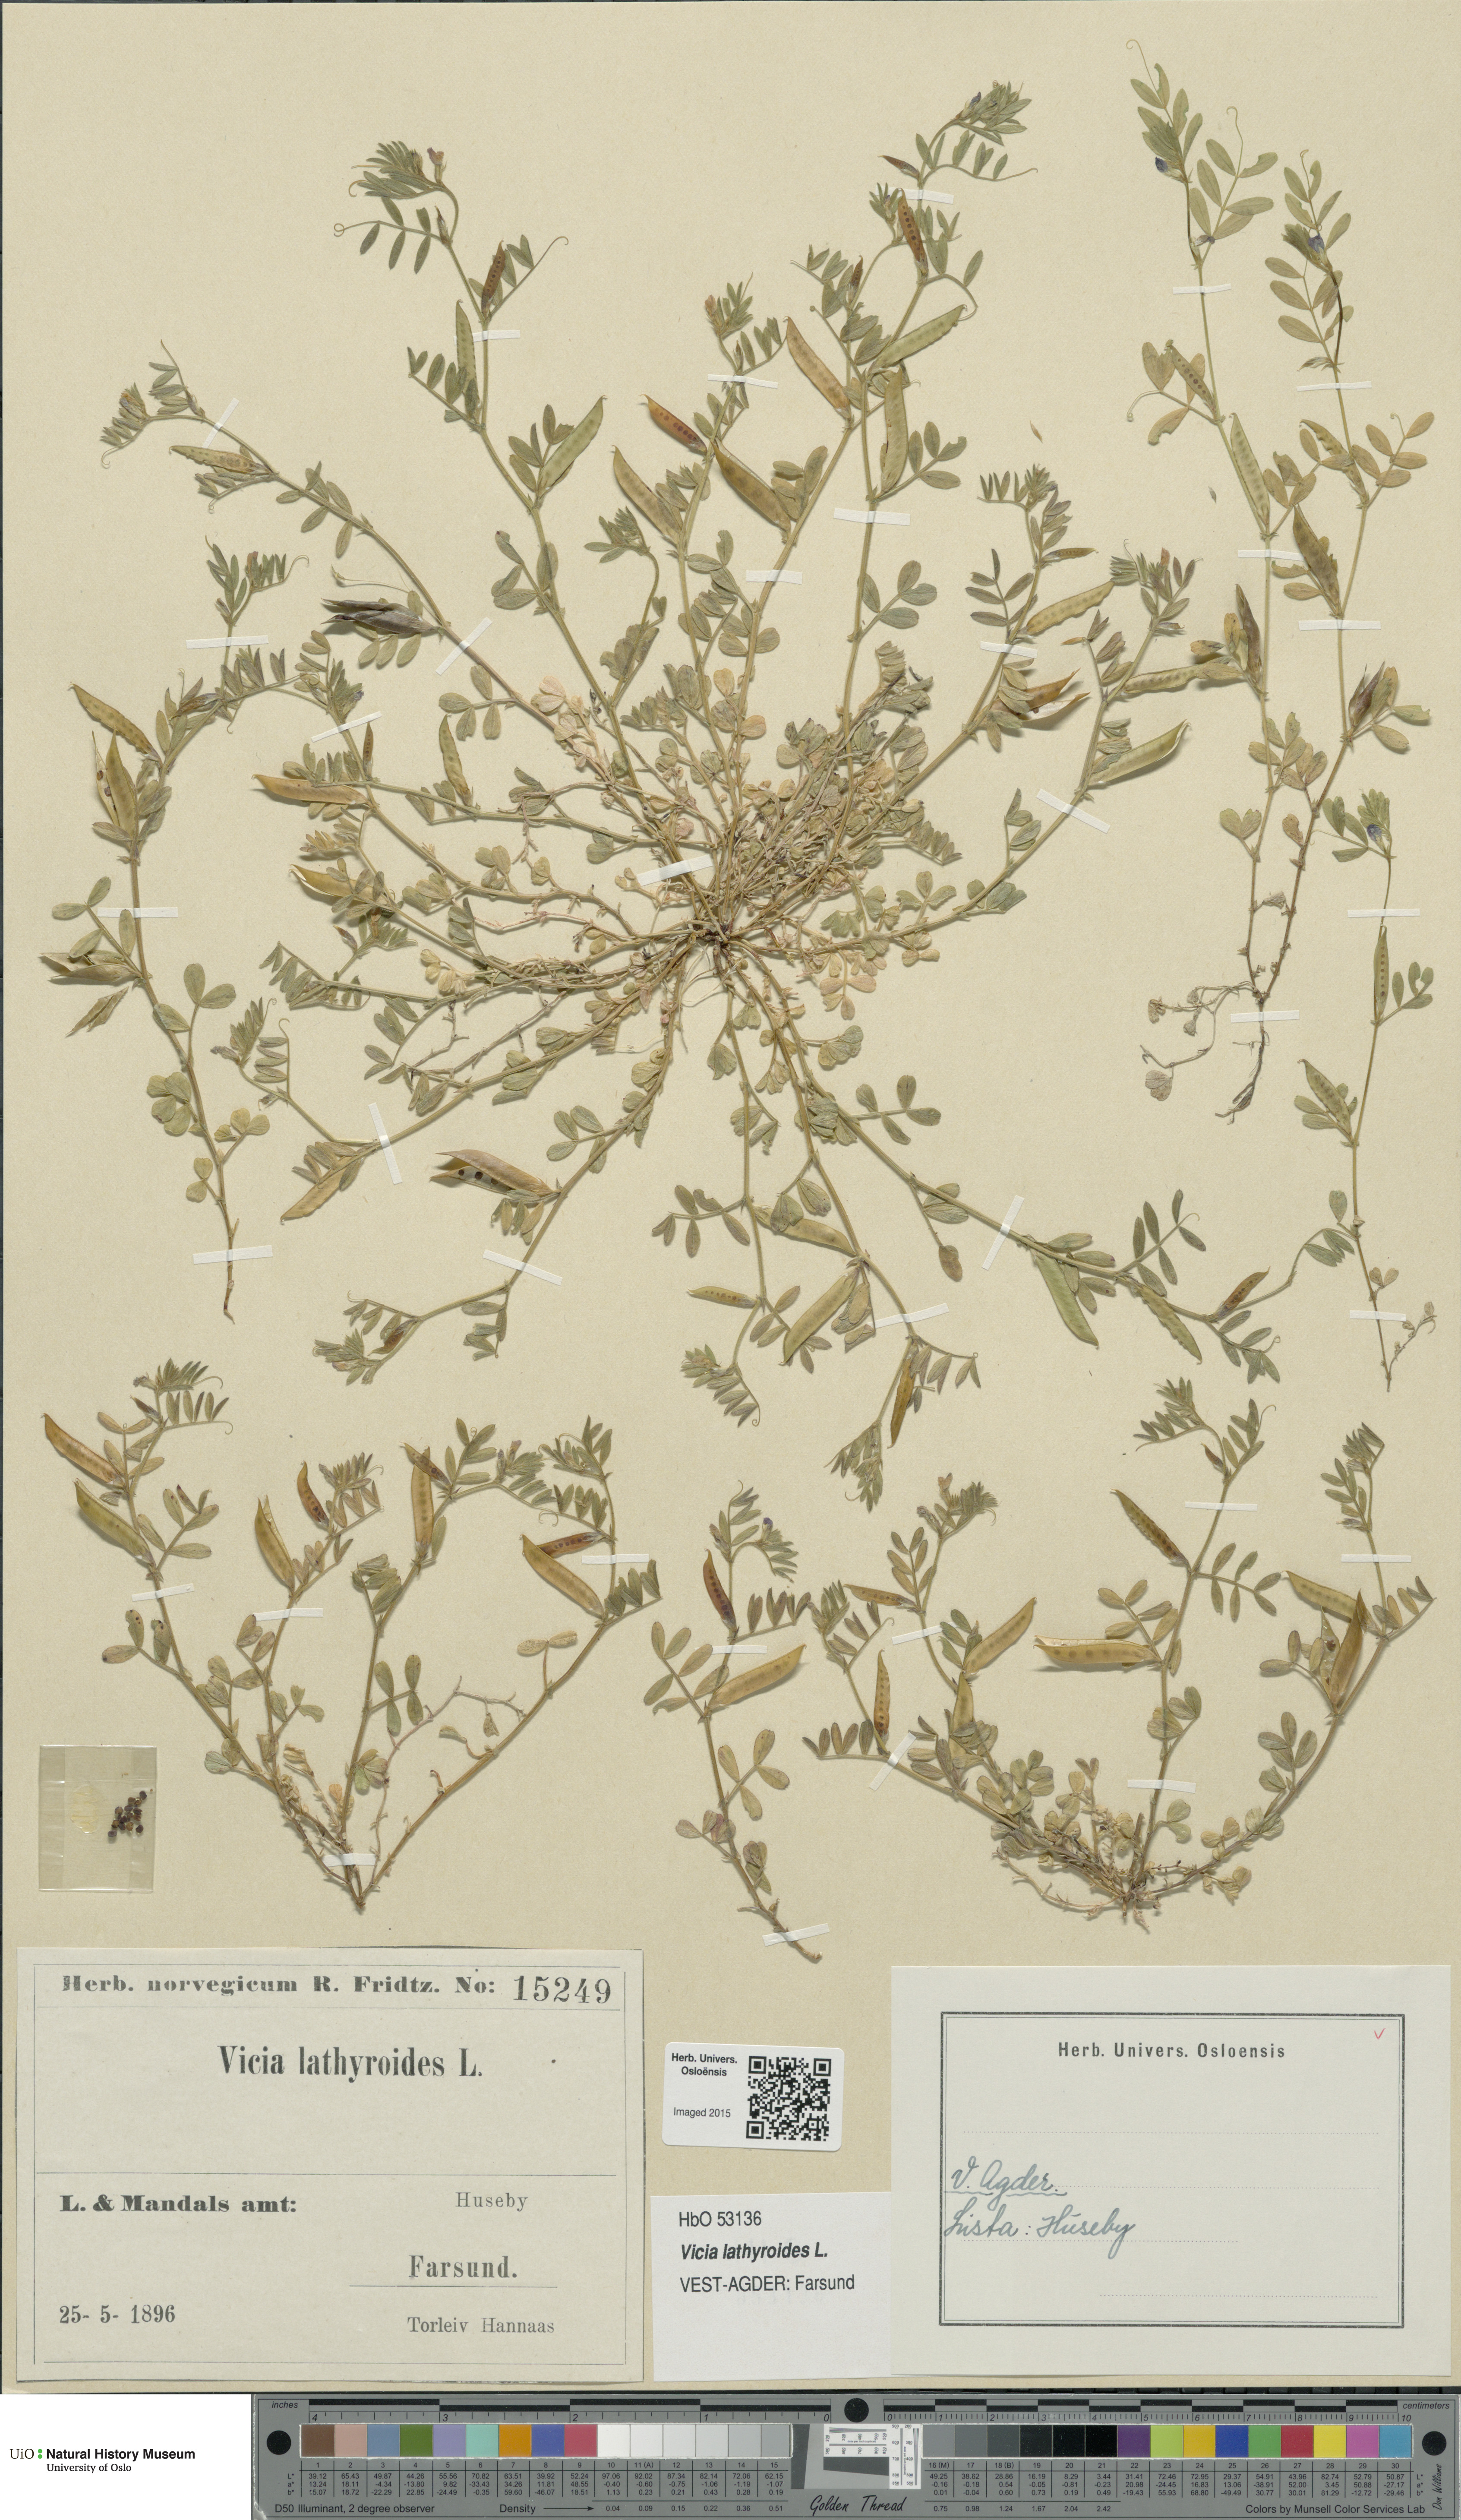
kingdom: Plantae
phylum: Tracheophyta
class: Magnoliopsida
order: Fabales
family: Fabaceae
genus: Vicia
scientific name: Vicia lathyroides
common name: Spring vetch
